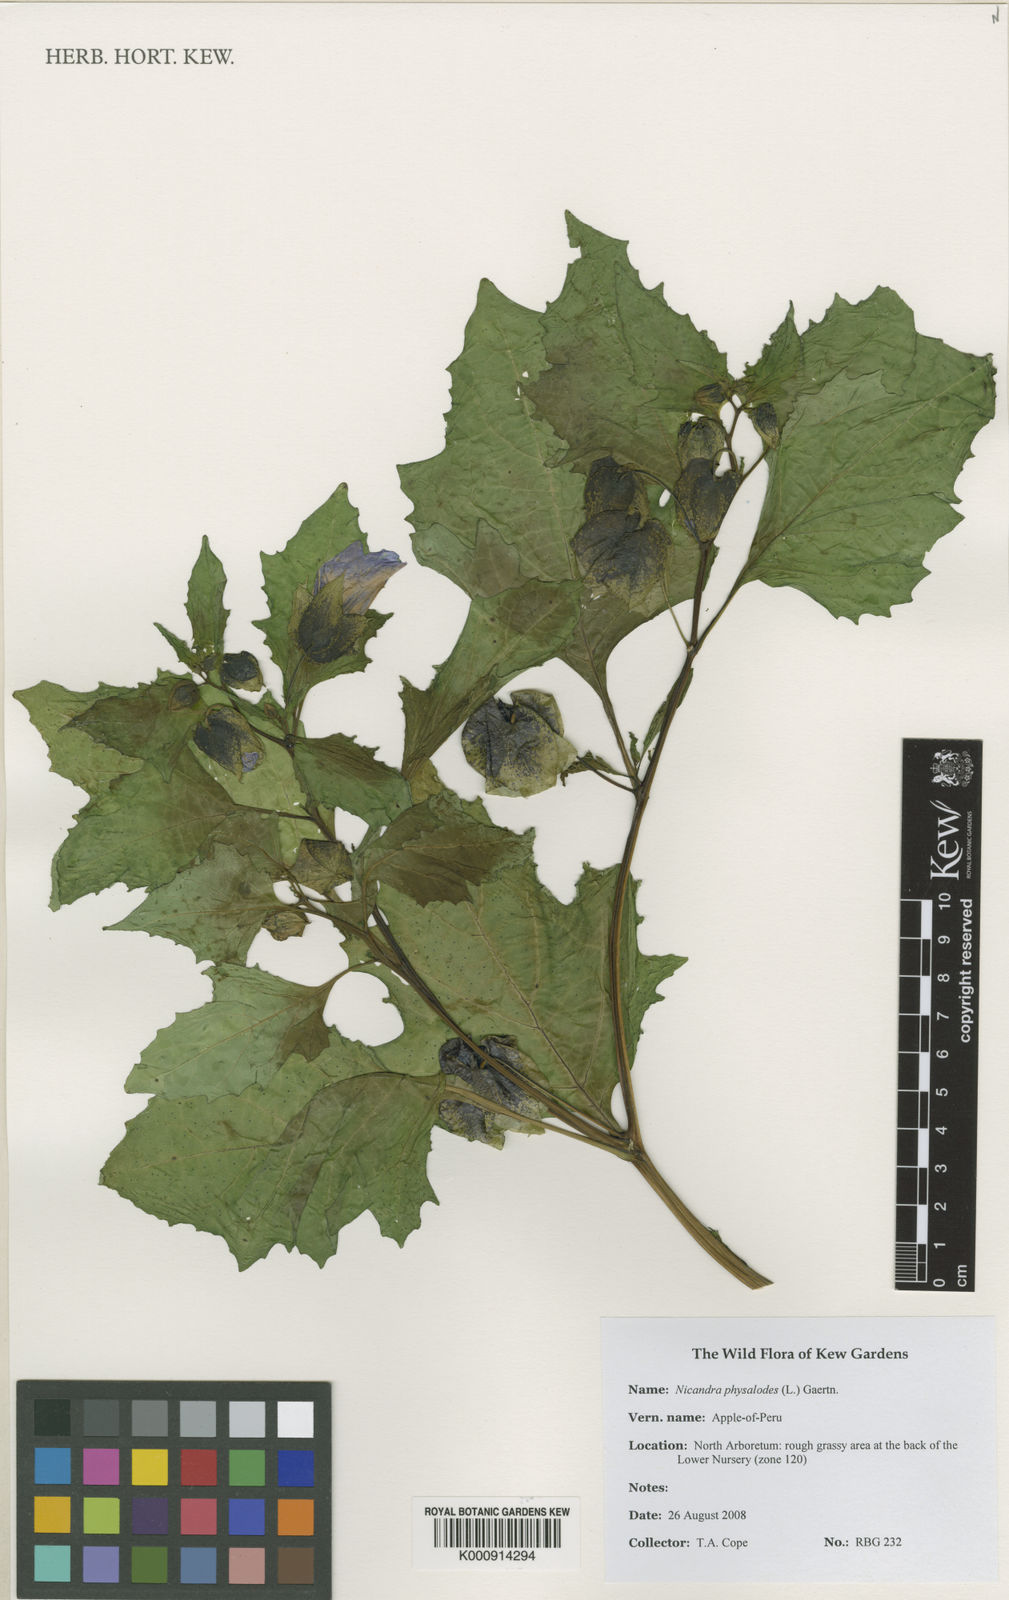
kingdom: Plantae
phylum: Tracheophyta
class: Magnoliopsida
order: Solanales
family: Solanaceae
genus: Nicandra
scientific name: Nicandra physalodes
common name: Apple-of-peru
